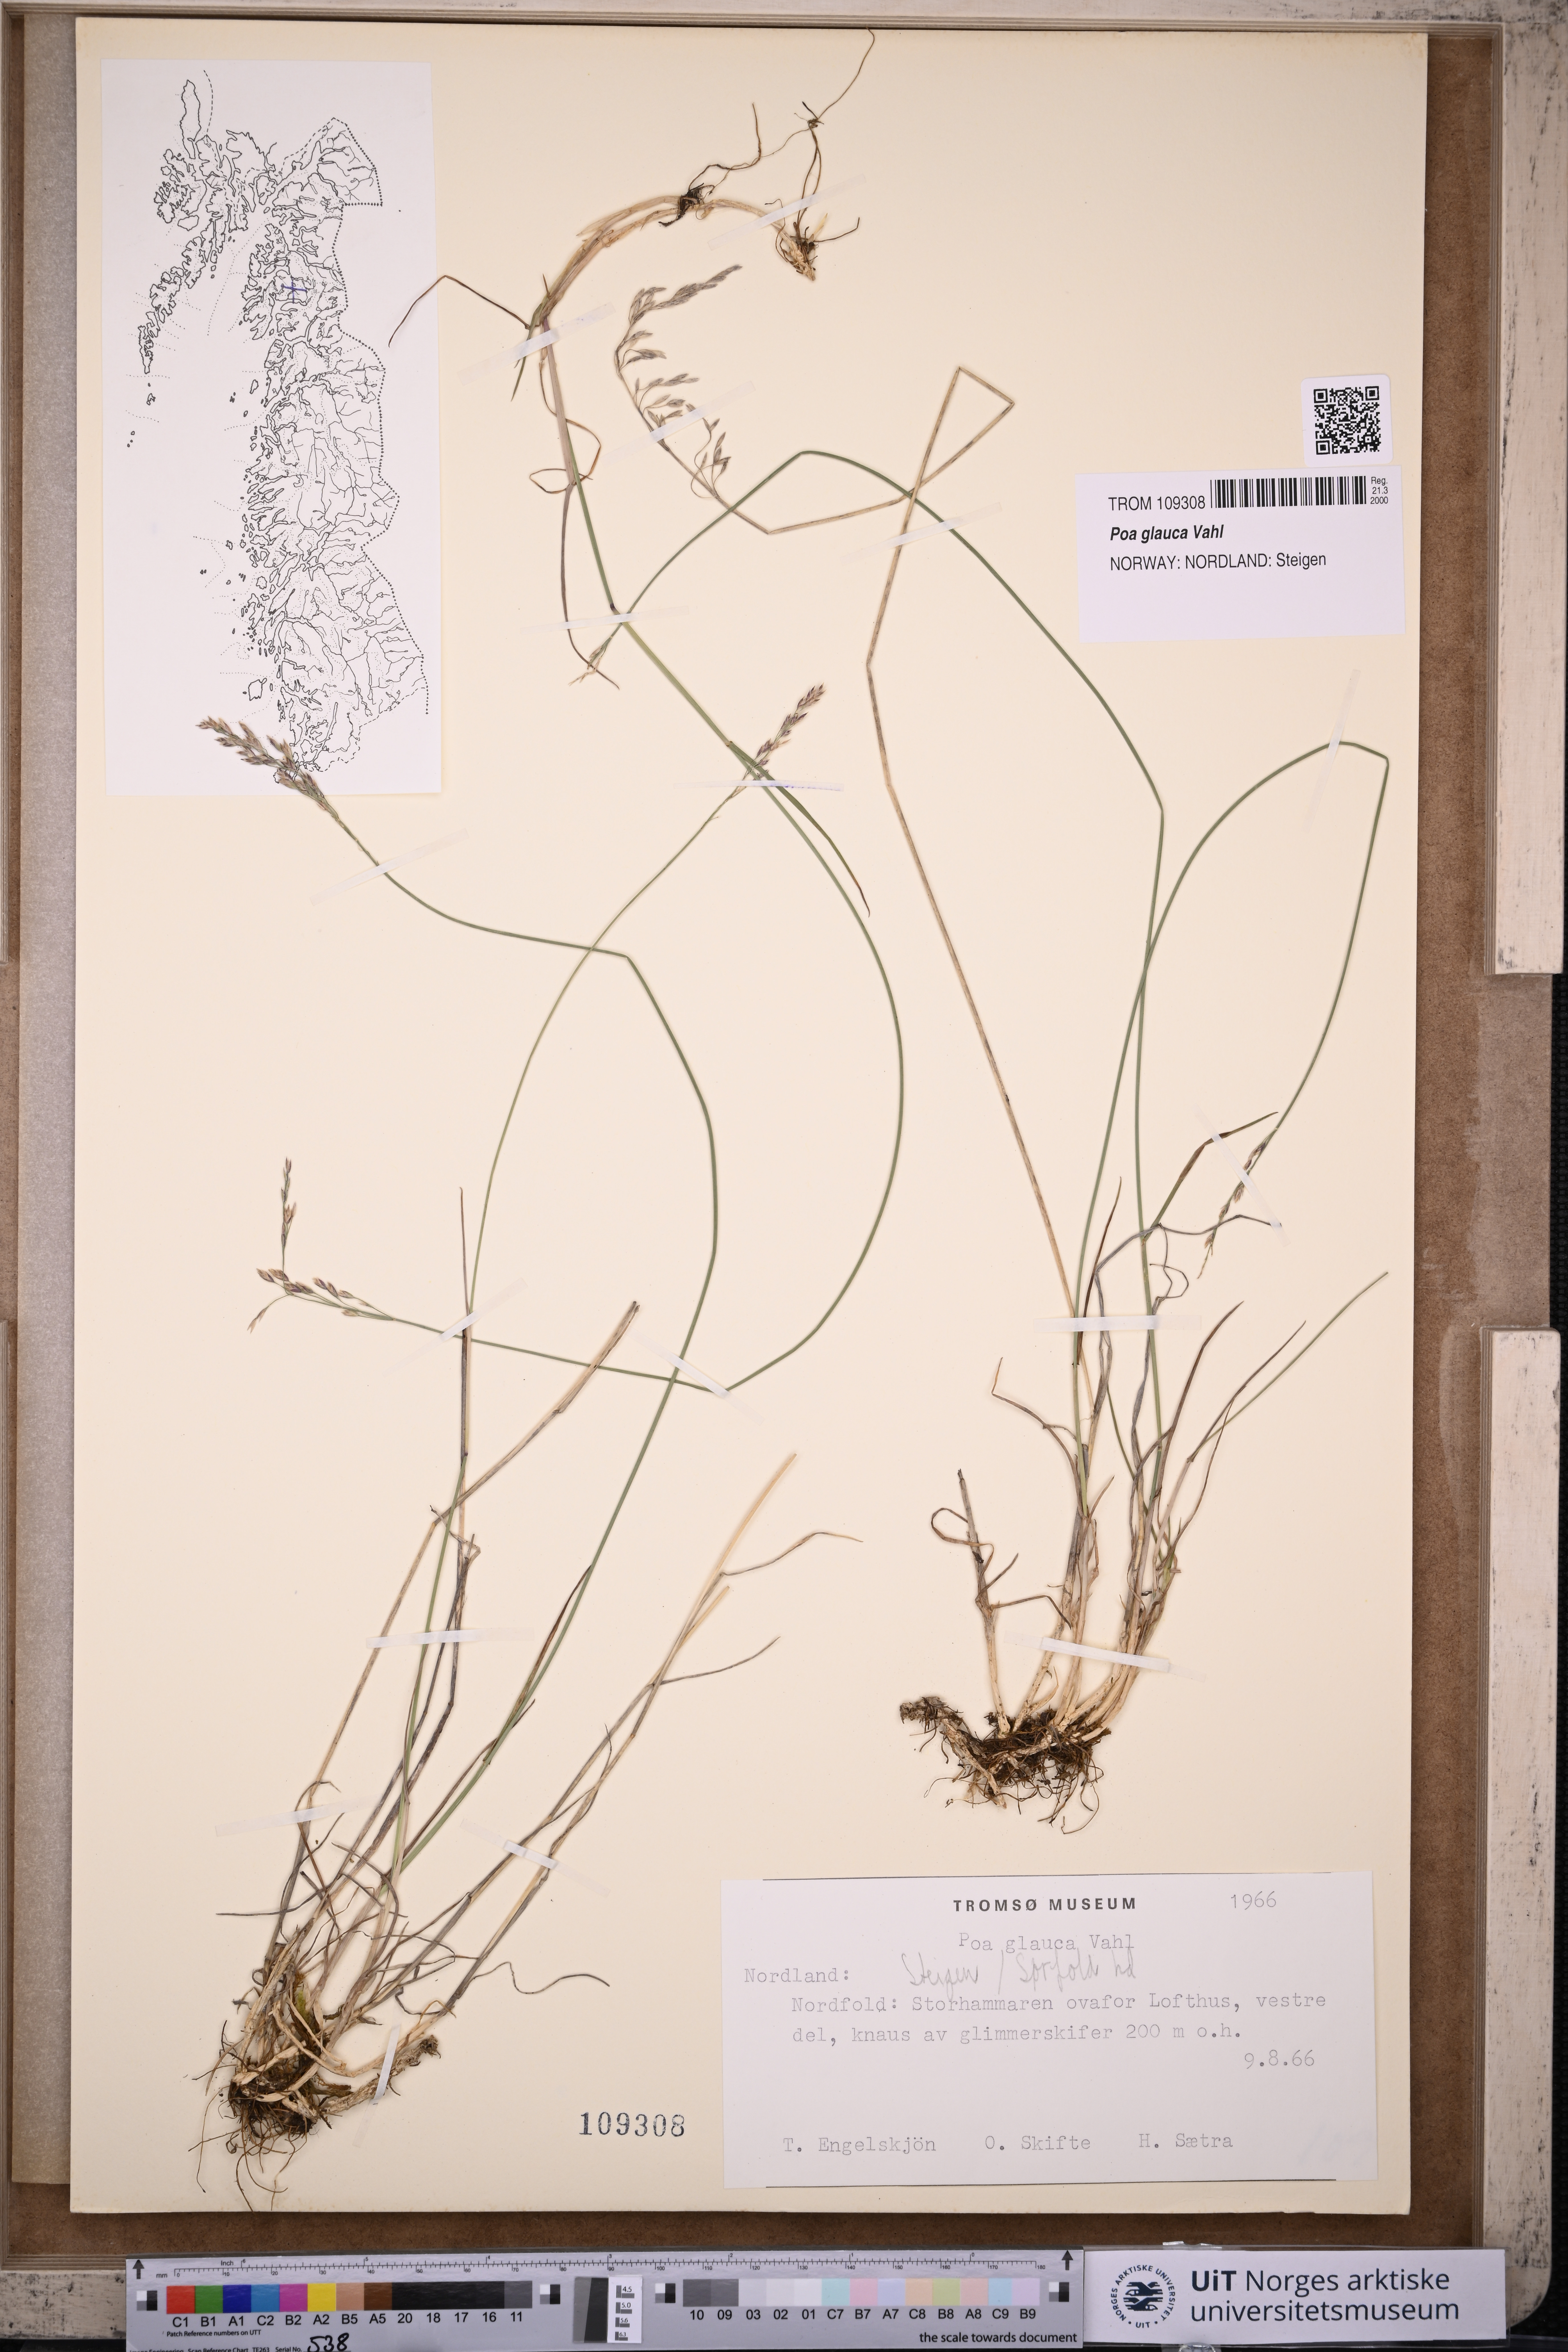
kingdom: Plantae
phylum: Tracheophyta
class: Liliopsida
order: Poales
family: Poaceae
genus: Poa
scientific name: Poa glauca
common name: Glaucous bluegrass
